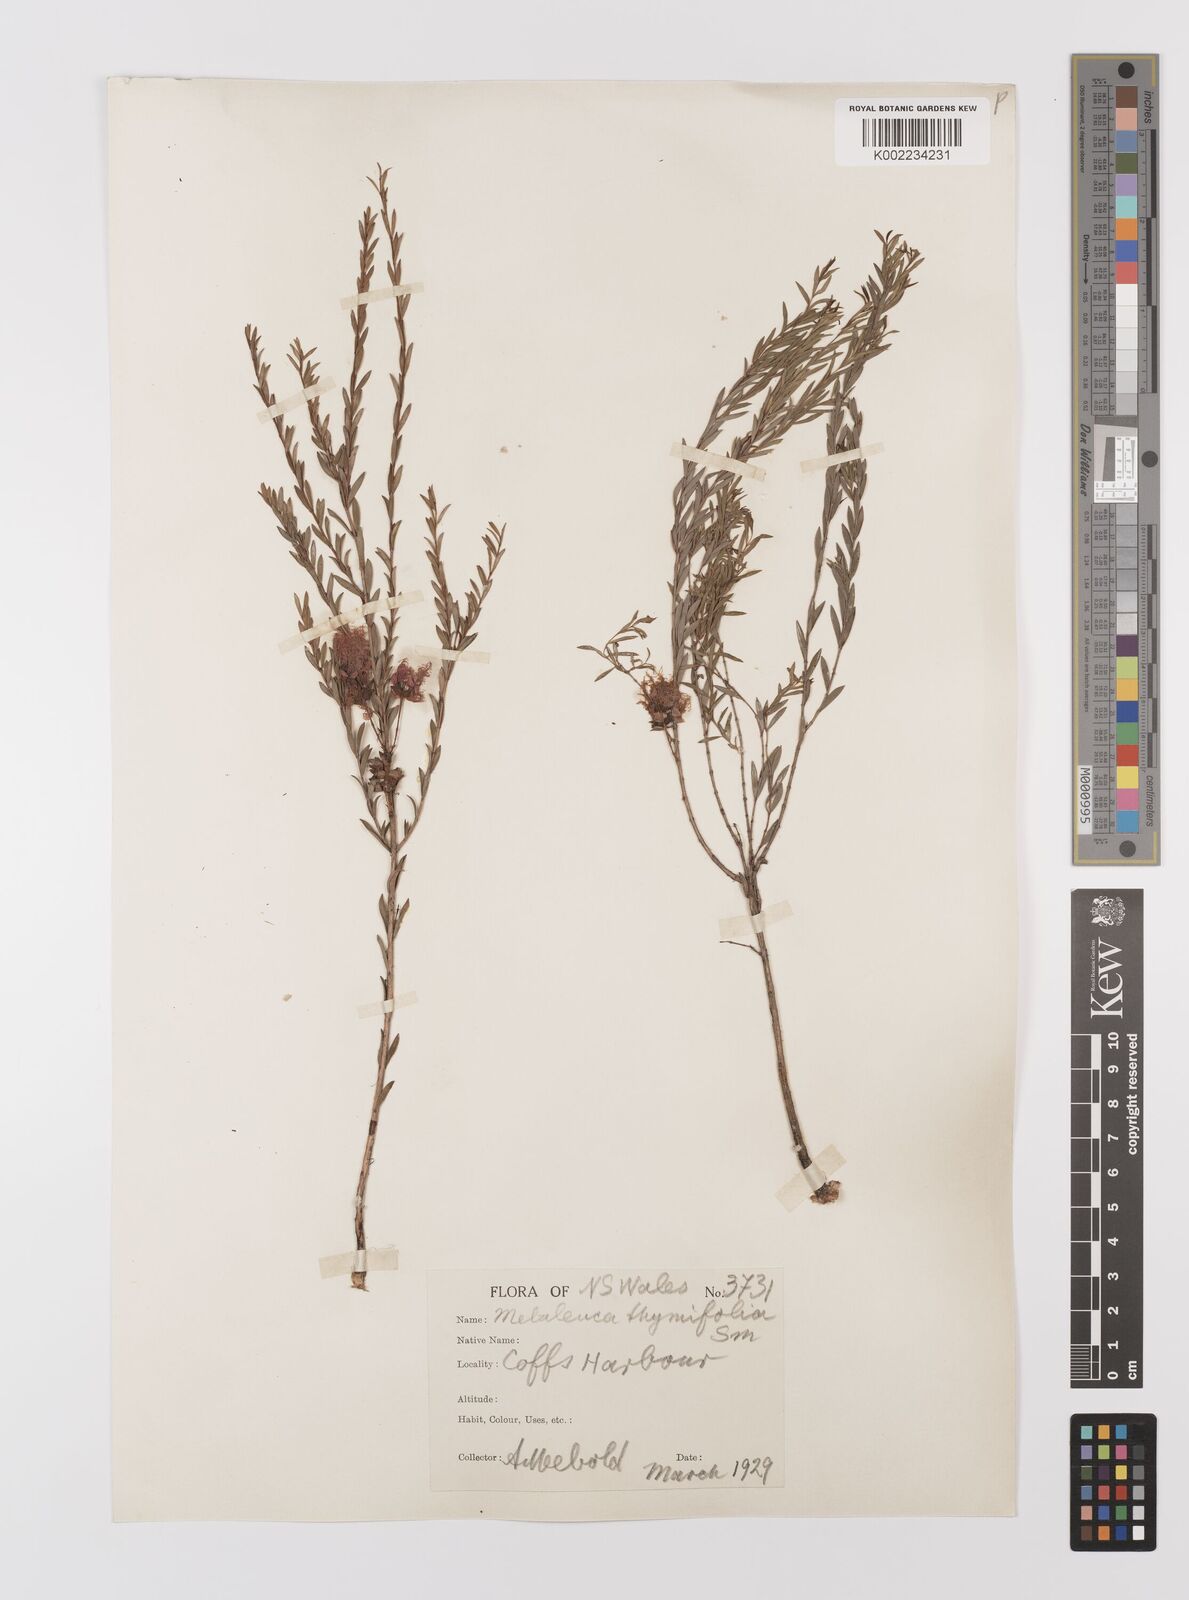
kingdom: Plantae
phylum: Tracheophyta
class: Magnoliopsida
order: Myrtales
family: Myrtaceae
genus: Melaleuca
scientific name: Melaleuca thymifolia
